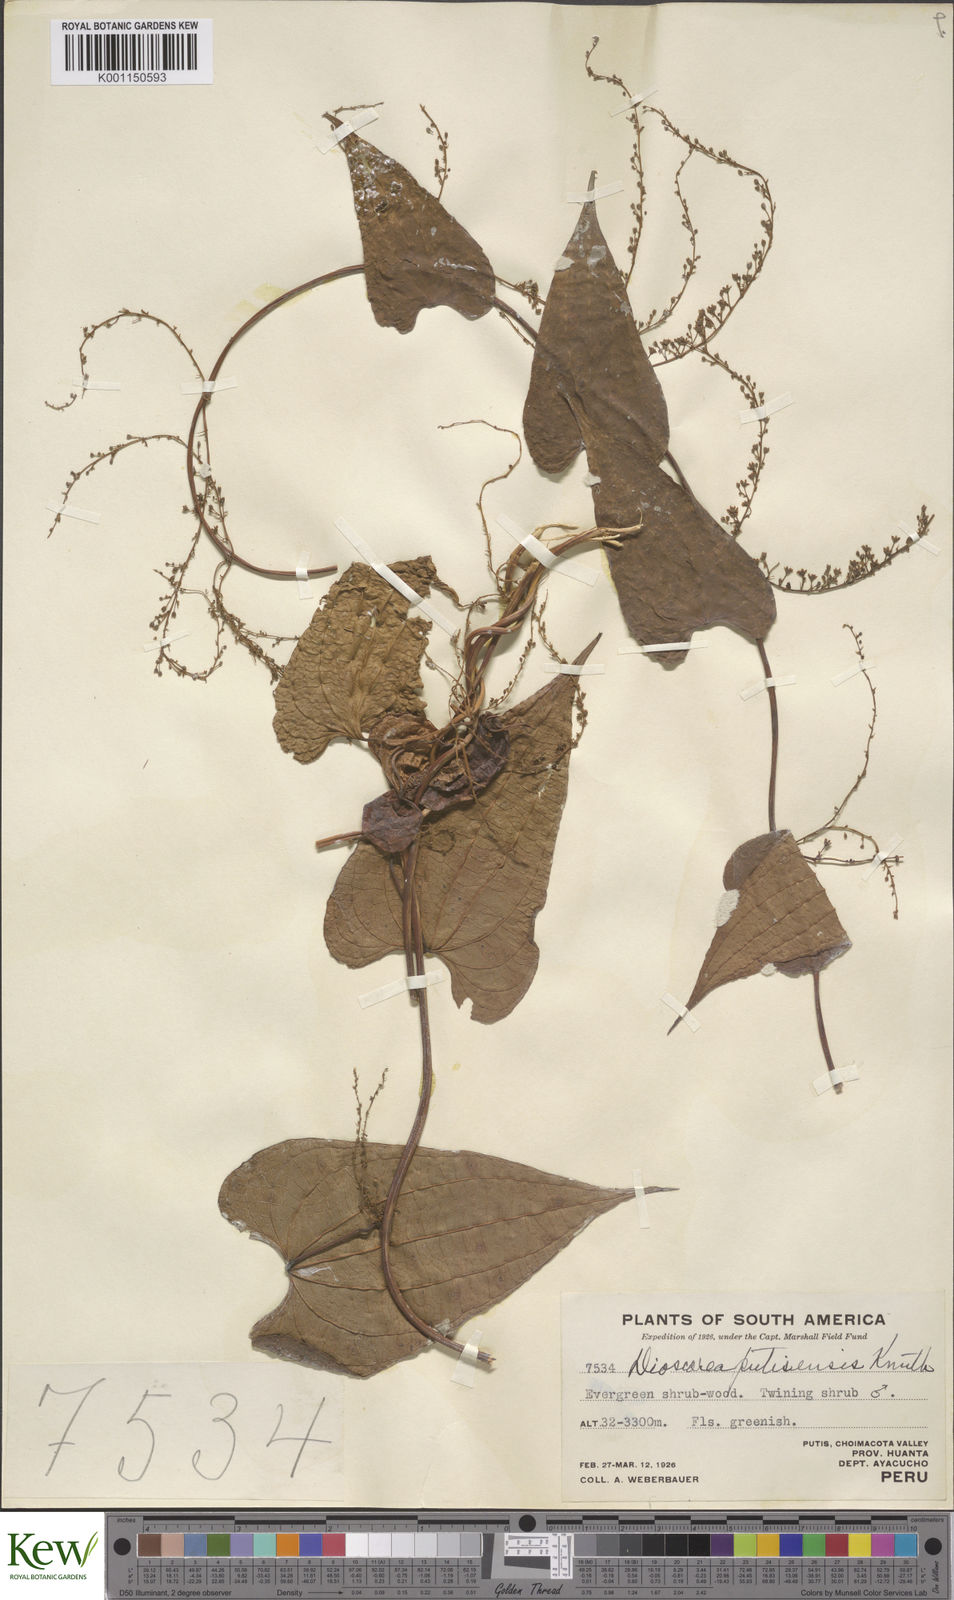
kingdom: Plantae
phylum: Tracheophyta
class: Liliopsida
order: Dioscoreales
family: Dioscoreaceae
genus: Dioscorea
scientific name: Dioscorea putisensis
